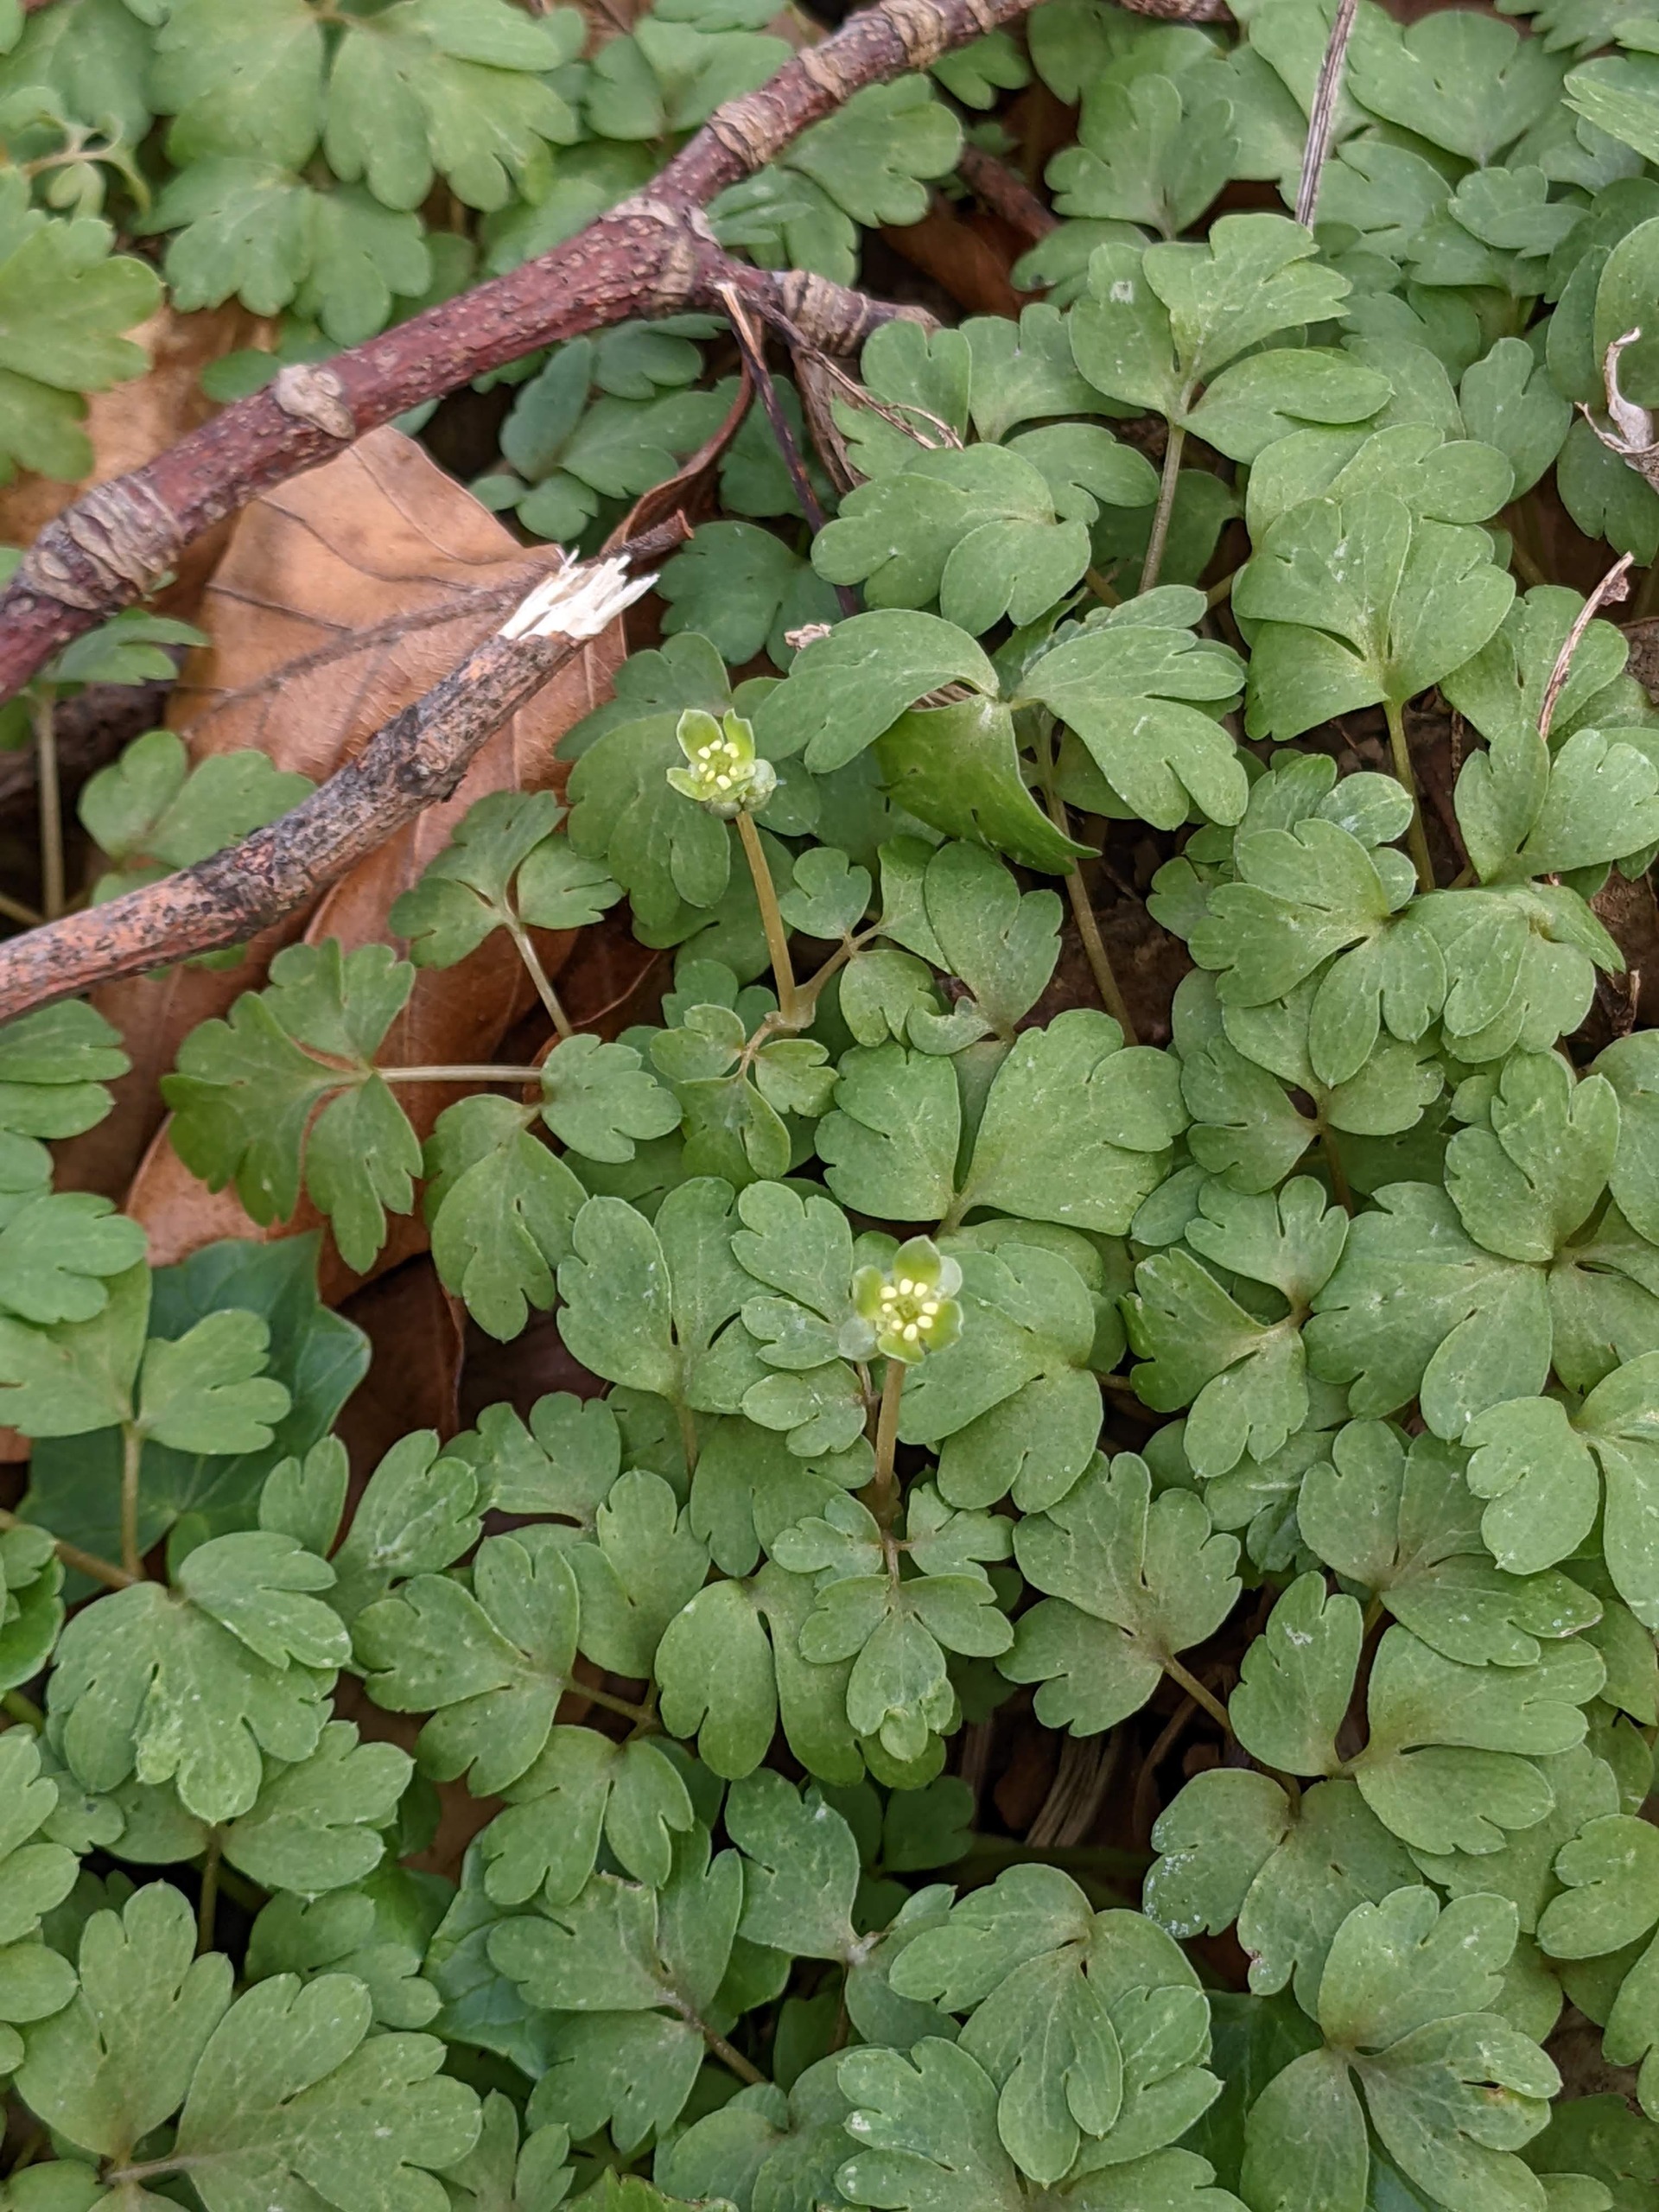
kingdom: Plantae
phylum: Tracheophyta
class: Magnoliopsida
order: Dipsacales
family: Viburnaceae
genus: Adoxa
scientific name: Adoxa moschatellina
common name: Desmerurt
